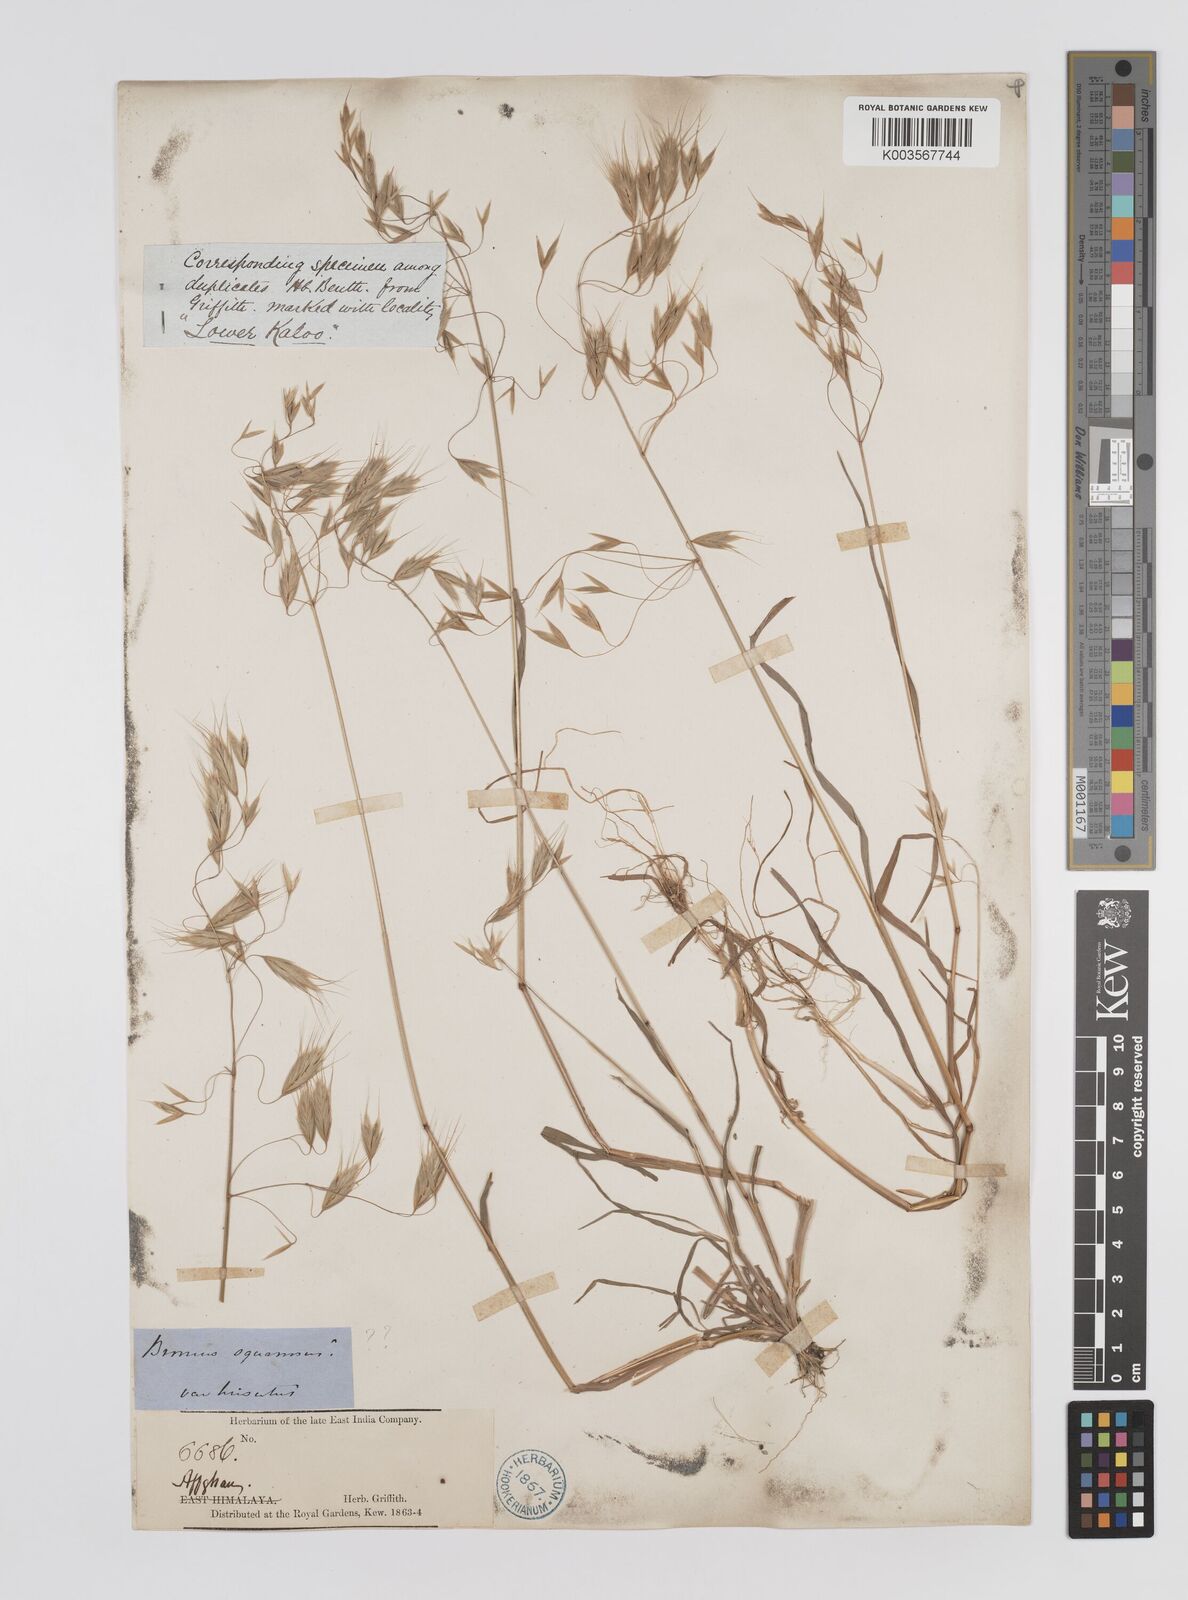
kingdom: Plantae
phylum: Tracheophyta
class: Liliopsida
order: Poales
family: Poaceae
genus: Bromus
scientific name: Bromus
